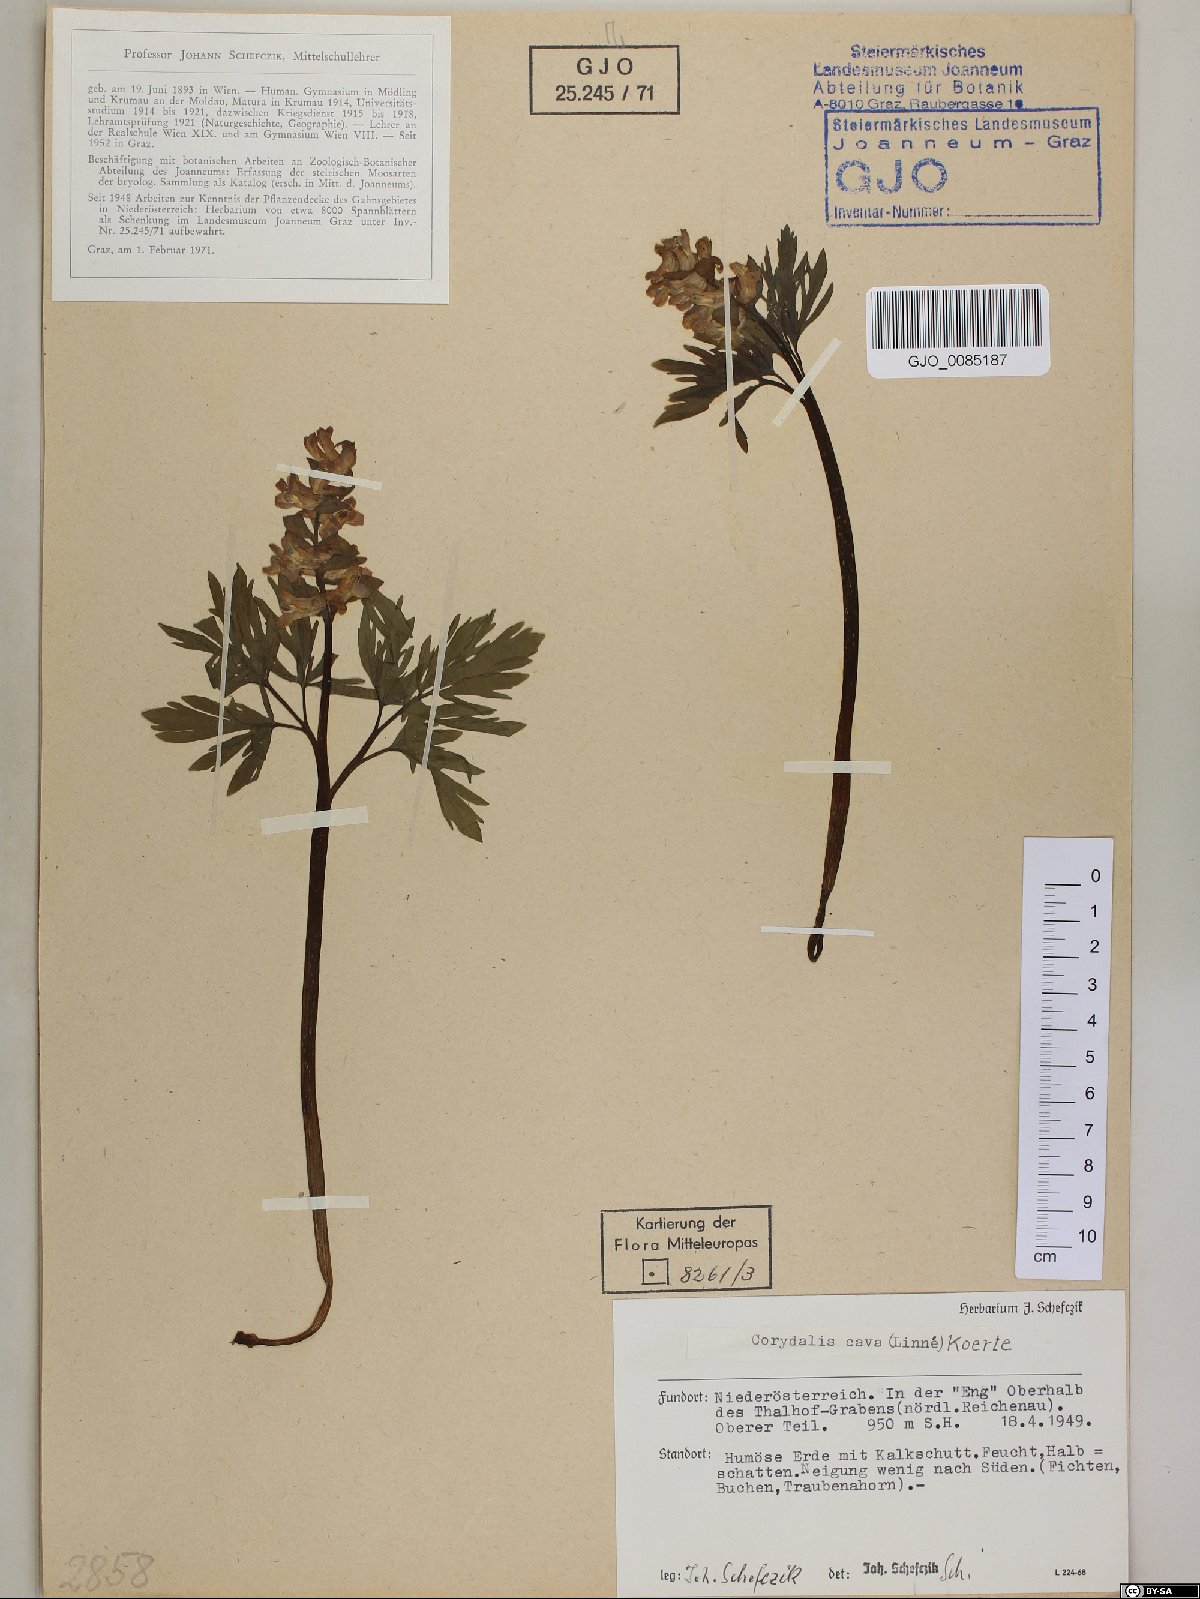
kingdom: Plantae
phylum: Tracheophyta
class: Magnoliopsida
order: Ranunculales
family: Papaveraceae
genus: Corydalis
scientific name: Corydalis cava
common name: Hollowroot
